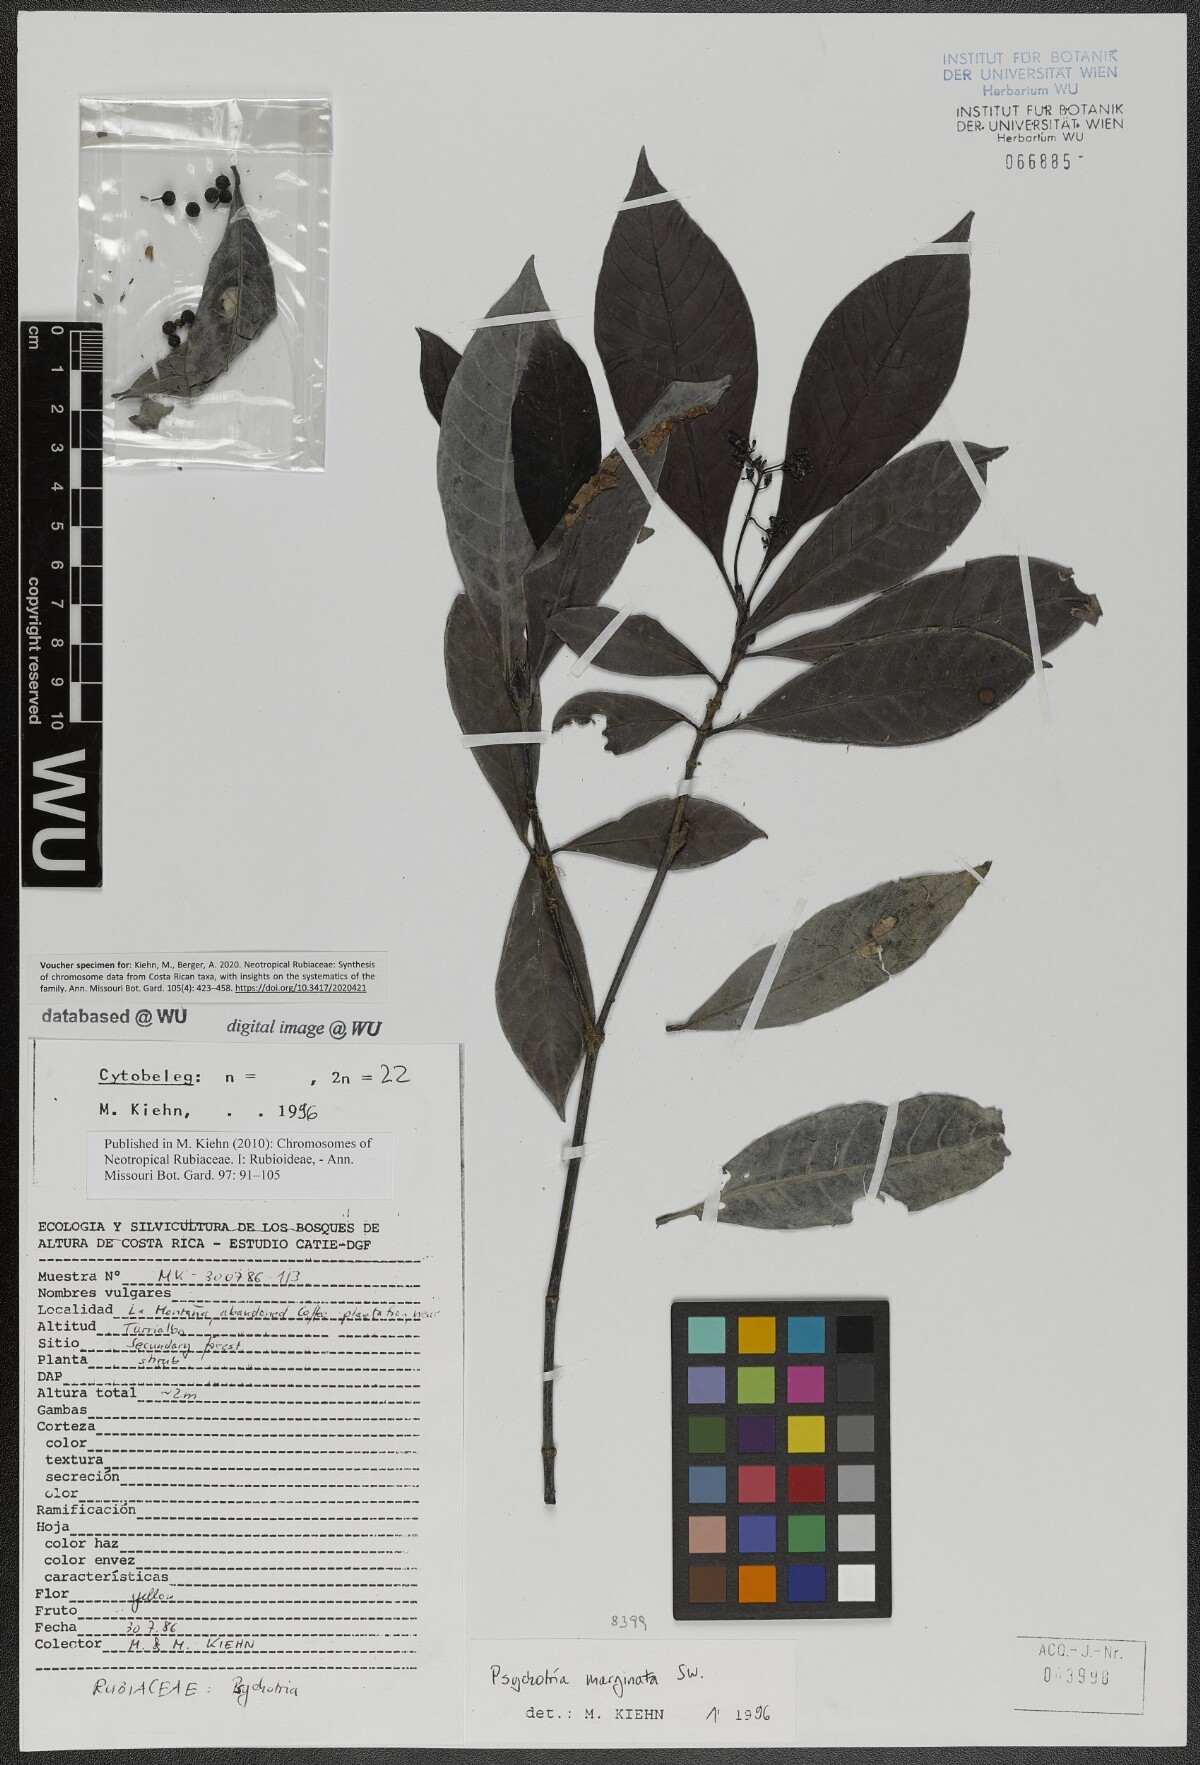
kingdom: Plantae
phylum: Tracheophyta
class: Magnoliopsida
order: Gentianales
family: Rubiaceae
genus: Psychotria
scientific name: Psychotria marginata
